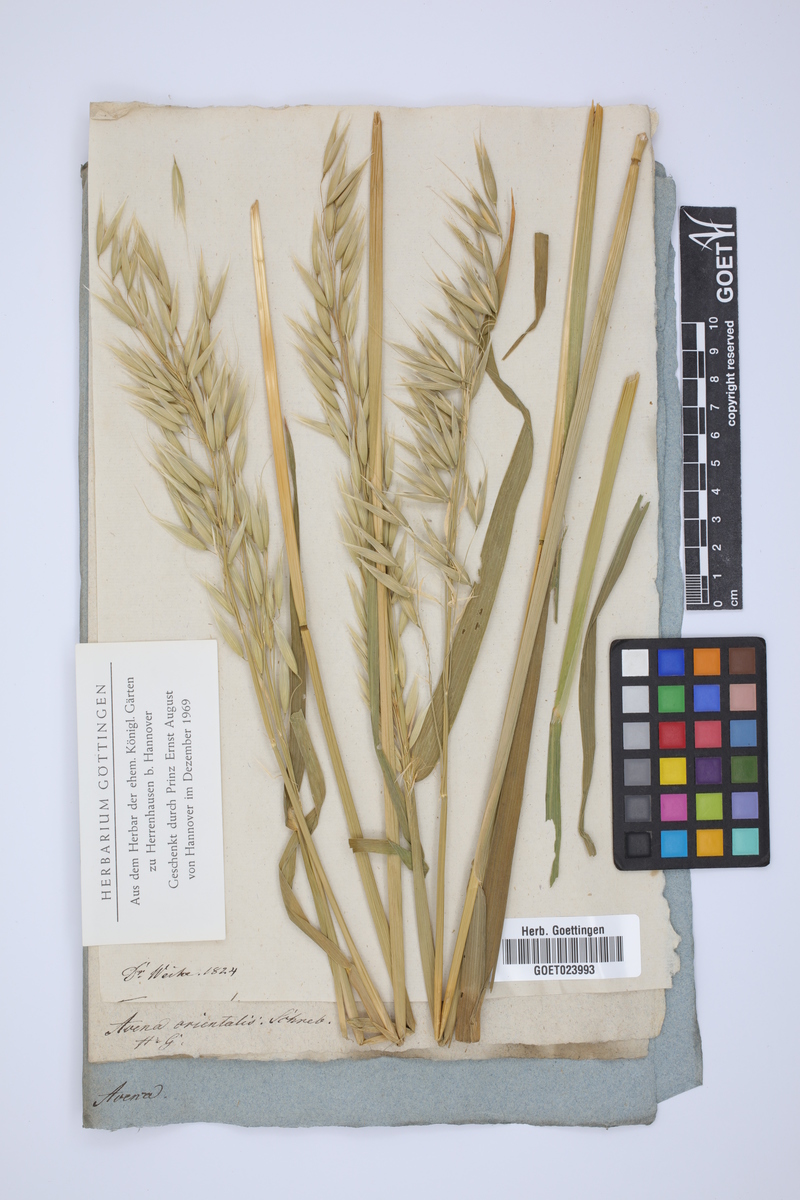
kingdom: Plantae
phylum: Tracheophyta
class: Liliopsida
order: Poales
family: Poaceae
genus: Avena
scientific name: Avena sativa
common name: Oat
